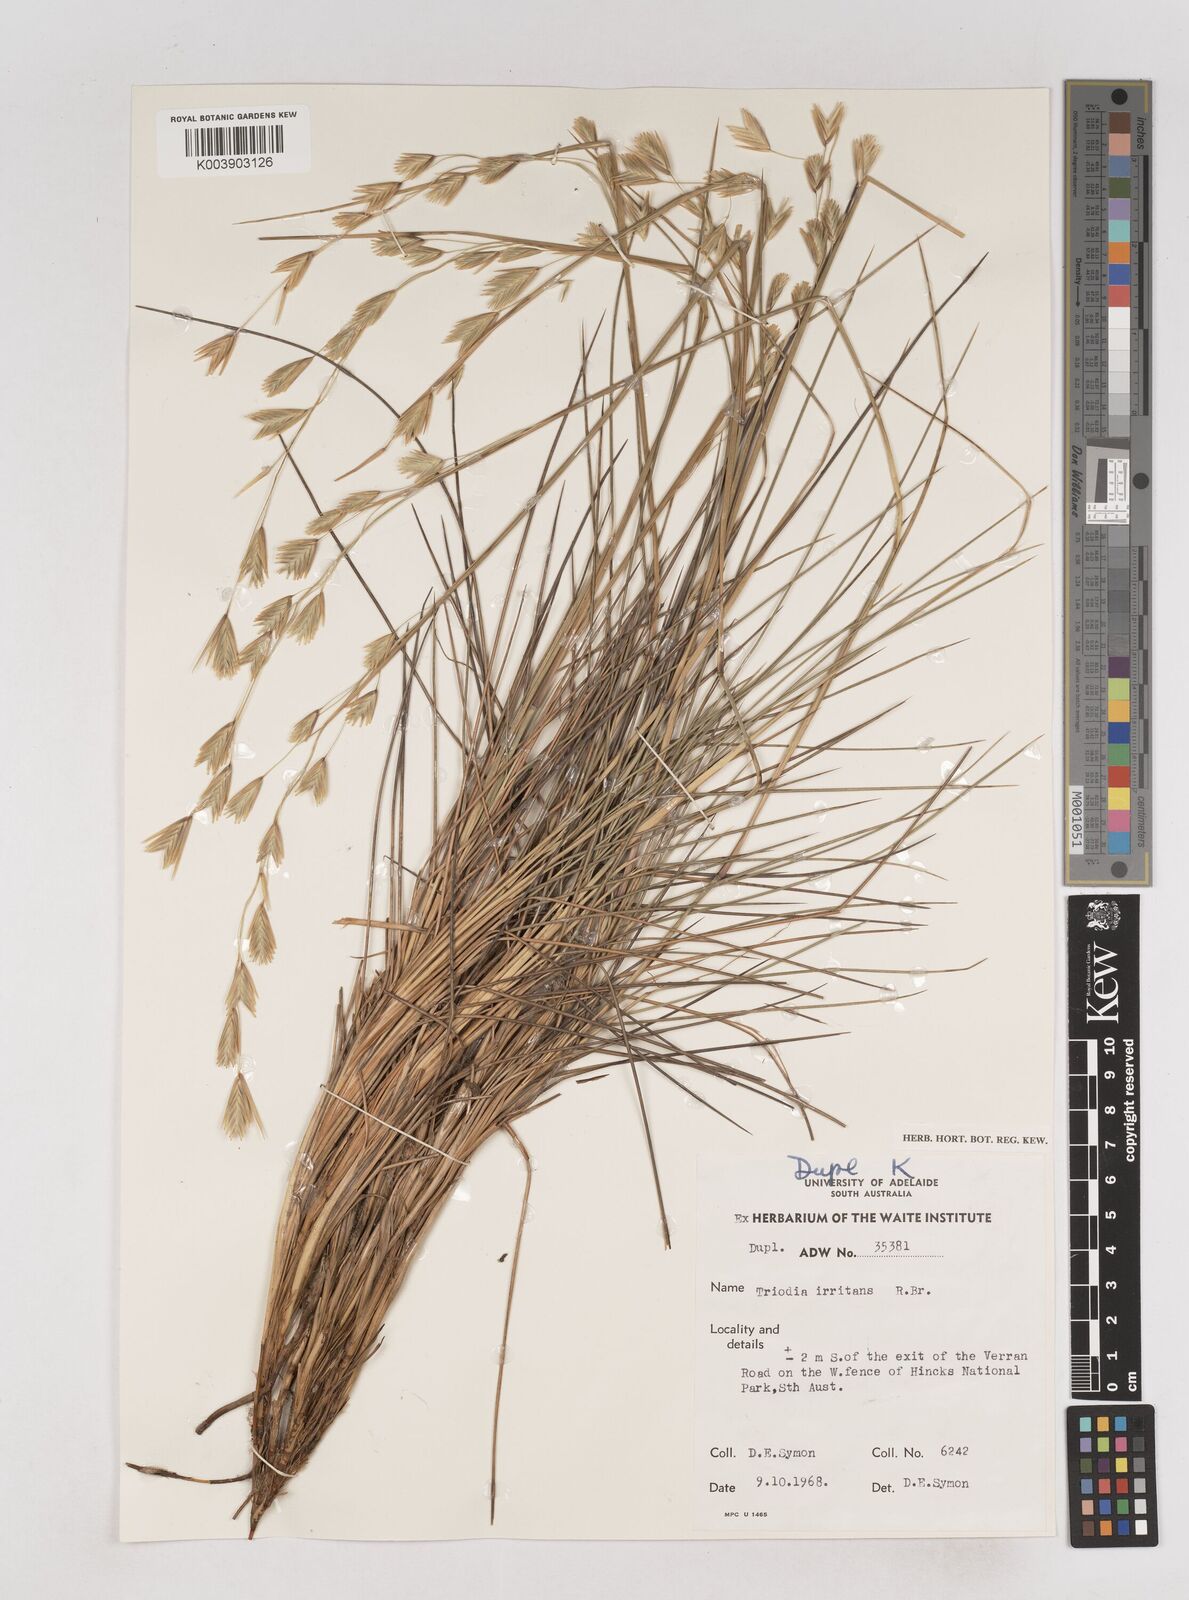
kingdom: Plantae
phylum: Tracheophyta
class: Liliopsida
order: Poales
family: Poaceae
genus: Triodia
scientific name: Triodia irritans
